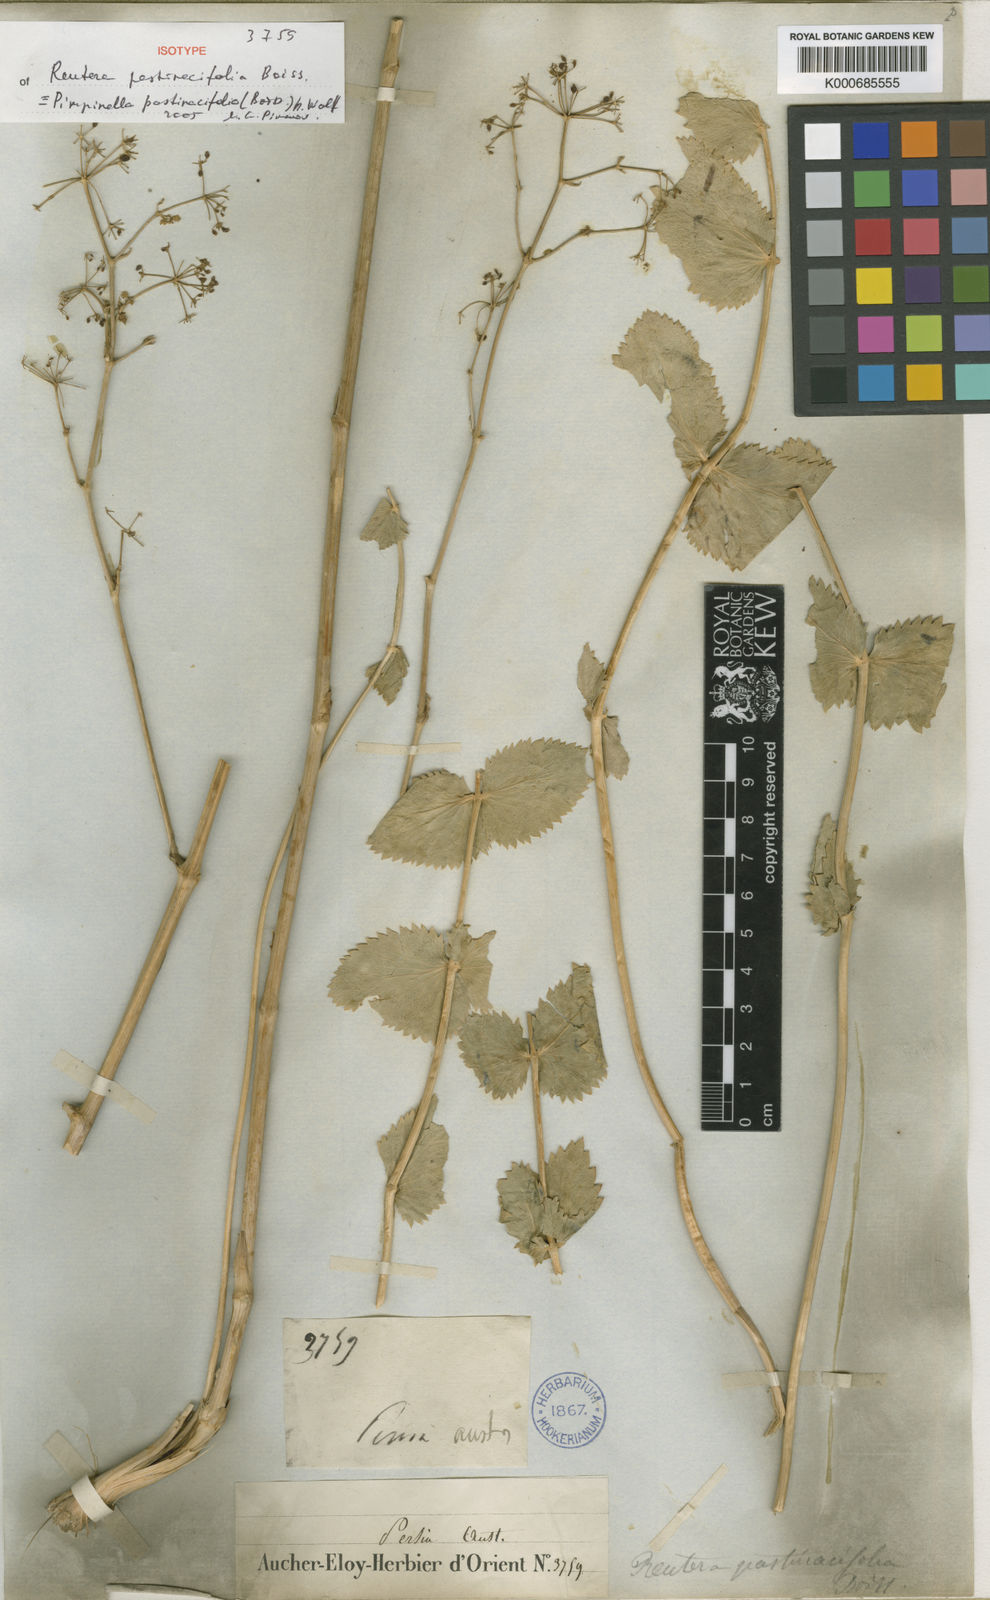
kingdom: Plantae
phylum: Tracheophyta
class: Magnoliopsida
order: Apiales
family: Apiaceae
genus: Pimpinella
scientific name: Pimpinella pastinacifolia
